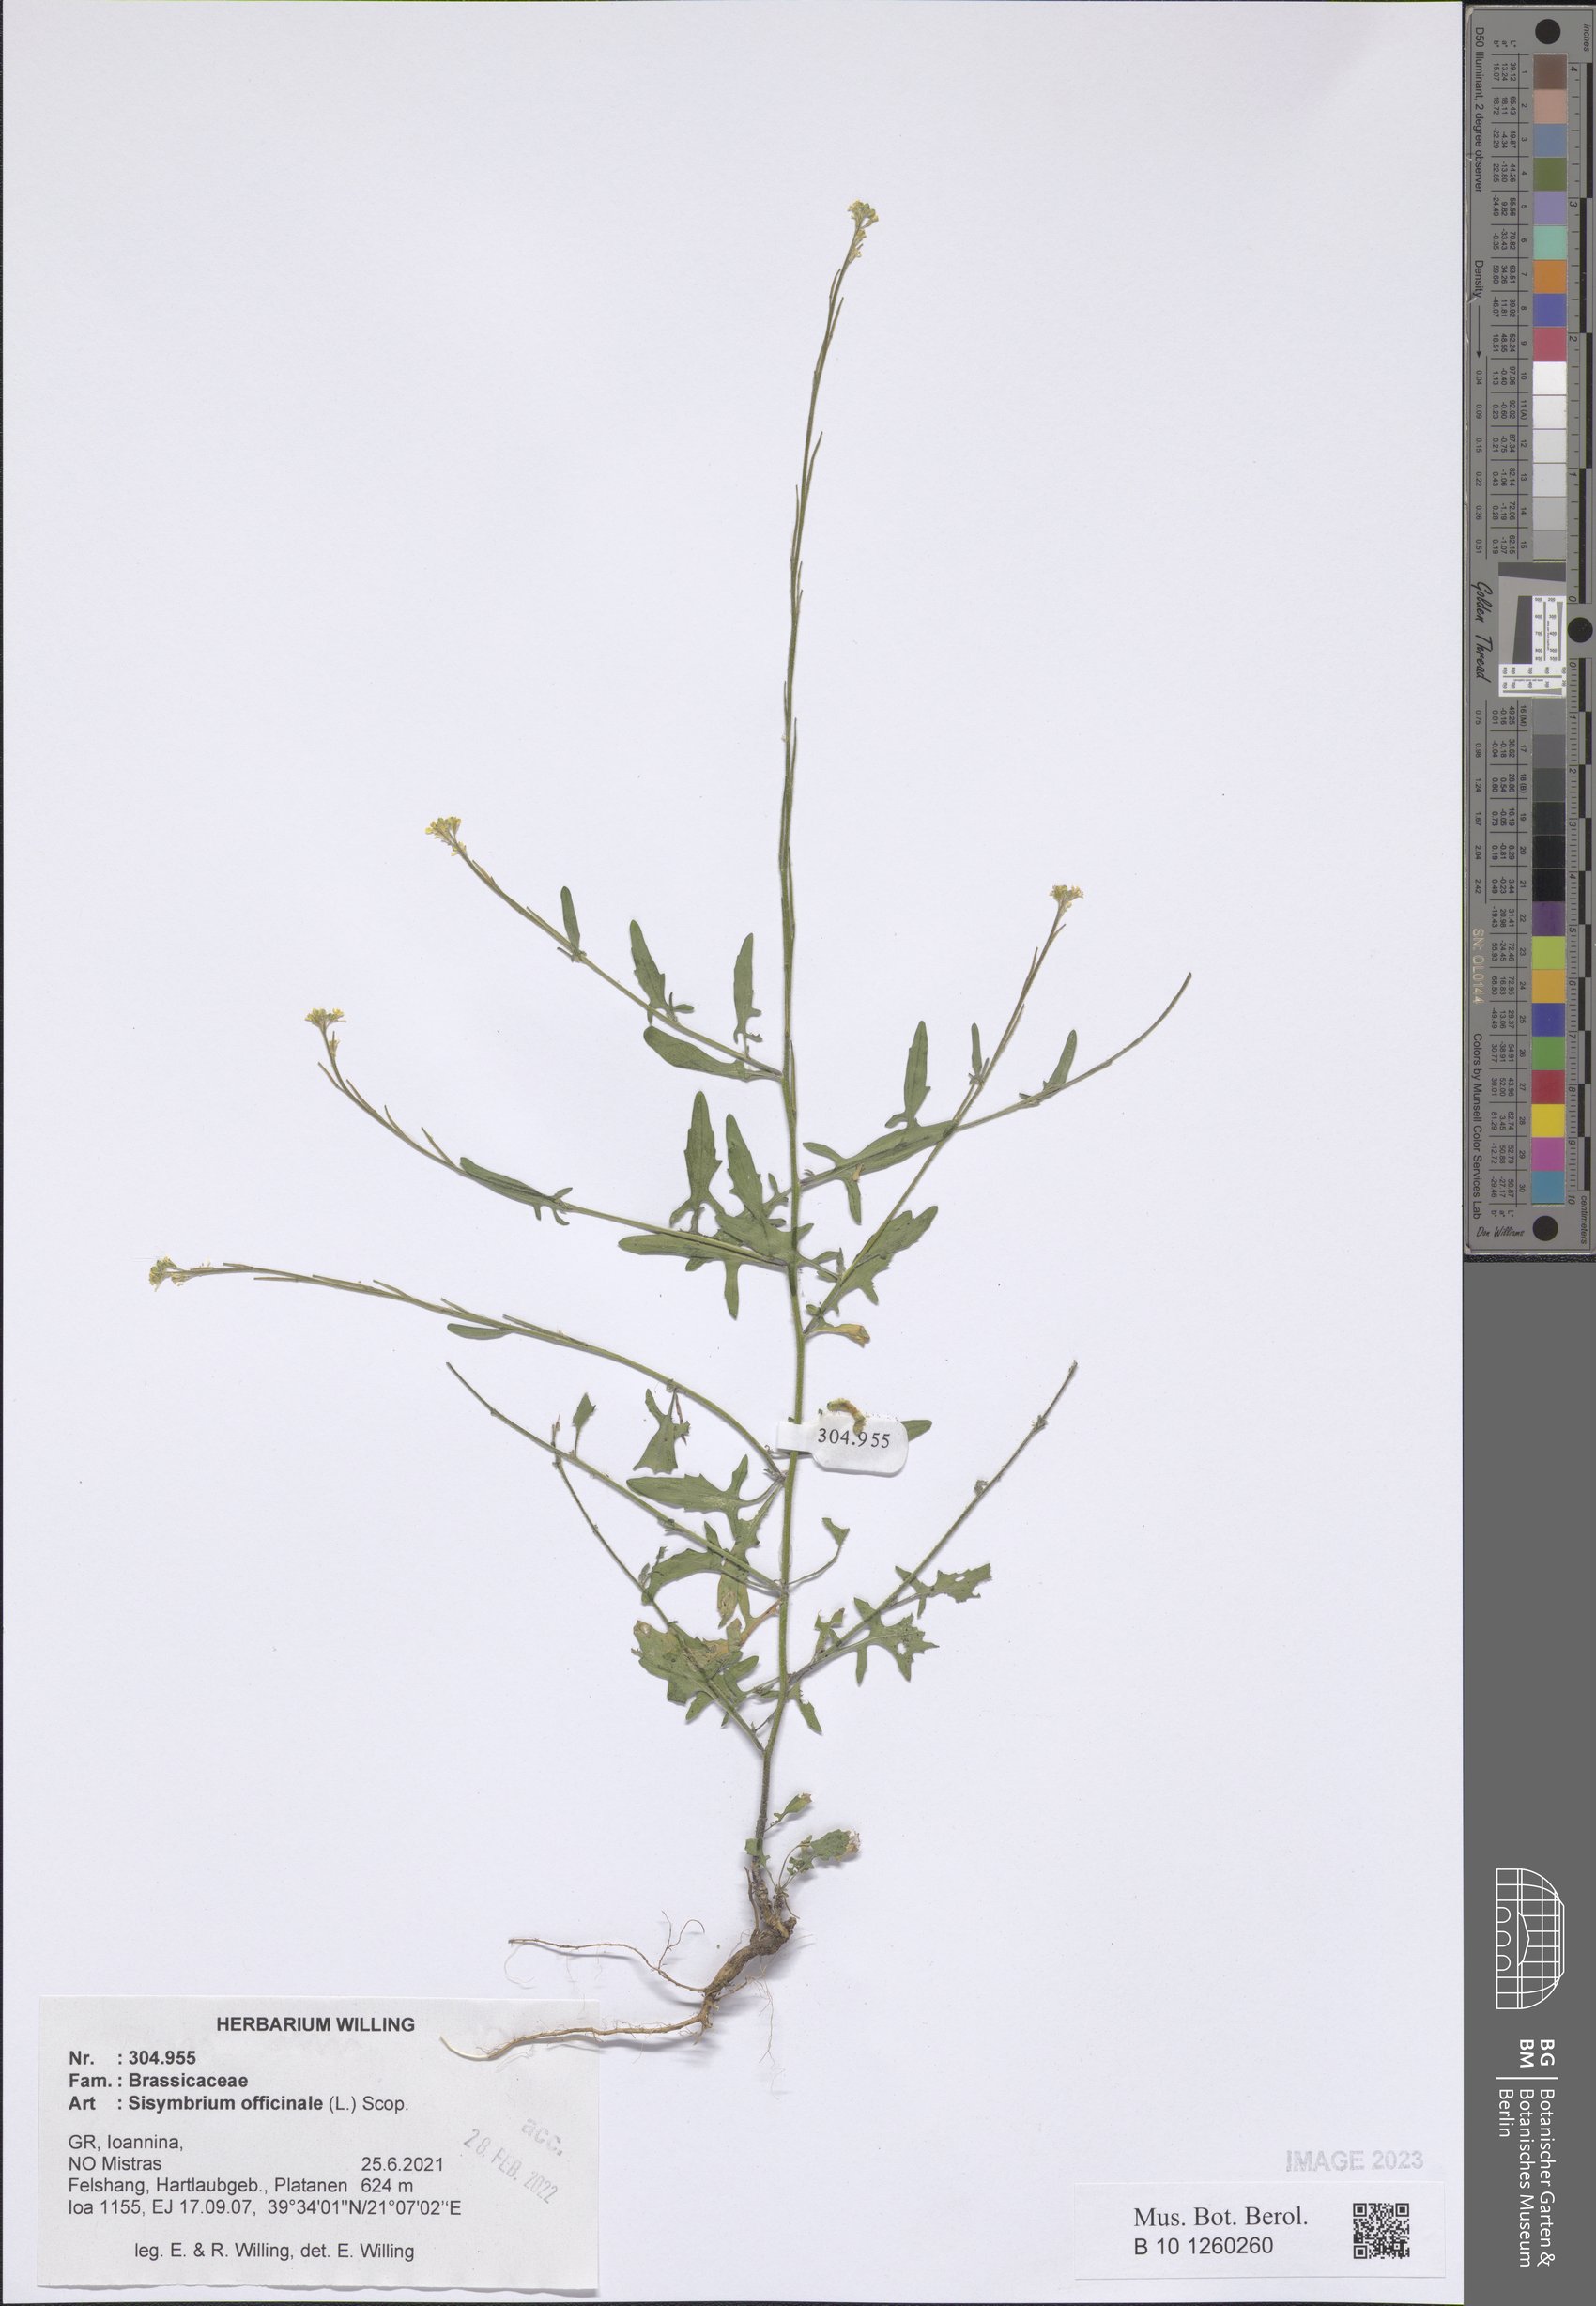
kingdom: Plantae
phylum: Tracheophyta
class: Magnoliopsida
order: Brassicales
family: Brassicaceae
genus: Sisymbrium
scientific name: Sisymbrium officinale
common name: Hedge mustard
